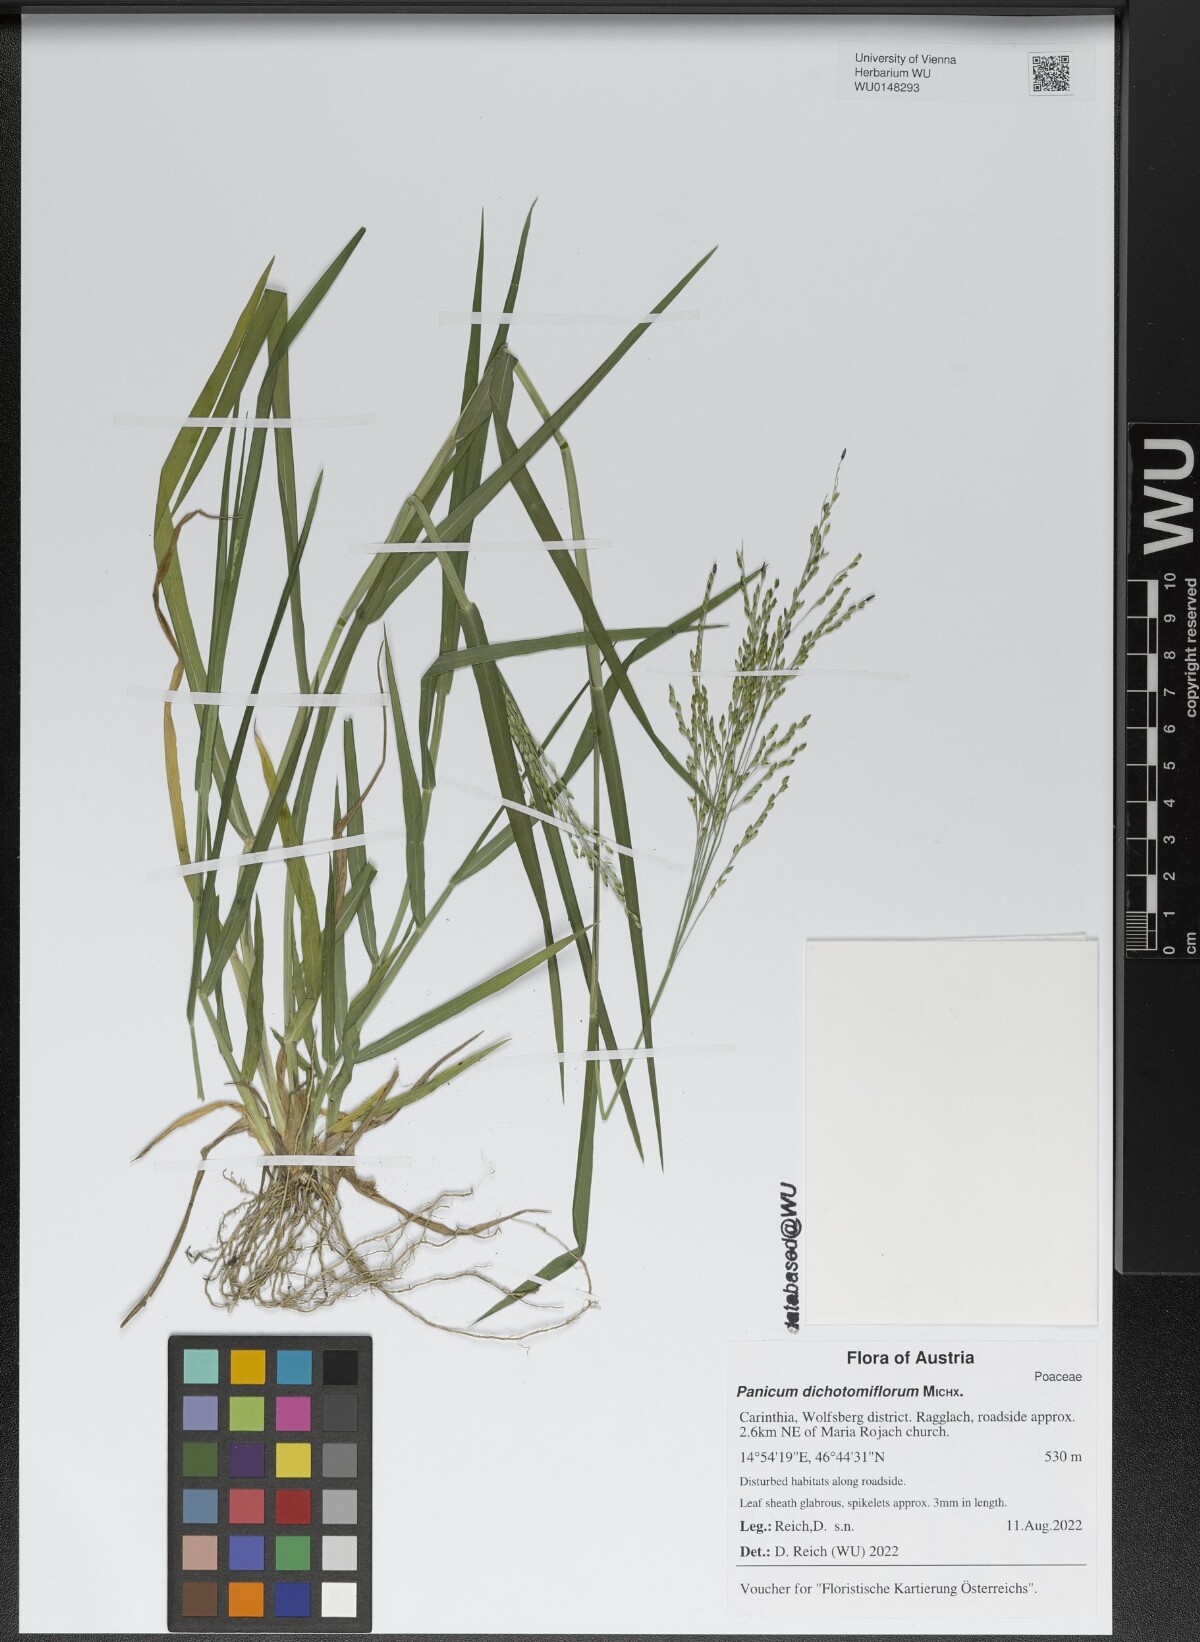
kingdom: Plantae
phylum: Tracheophyta
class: Liliopsida
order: Poales
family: Poaceae
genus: Panicum
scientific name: Panicum dichotomiflorum
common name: Autumn millet
